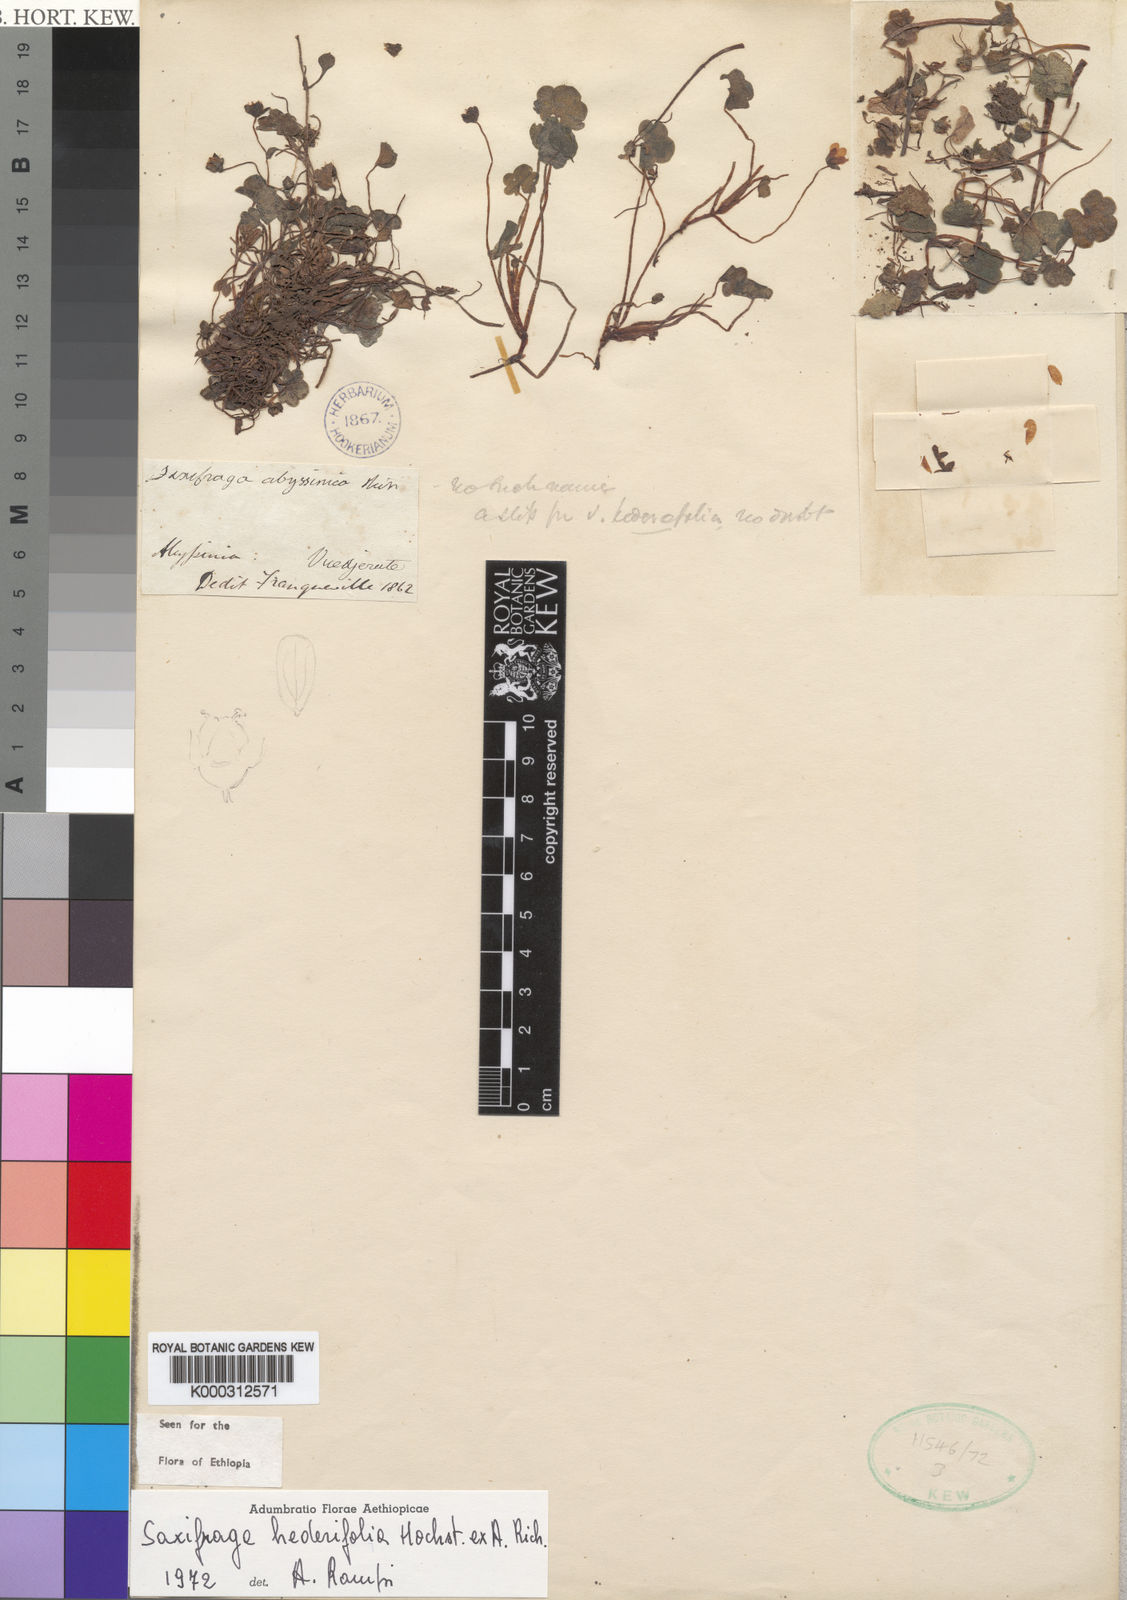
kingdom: Plantae
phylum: Tracheophyta
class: Magnoliopsida
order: Saxifragales
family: Saxifragaceae
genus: Saxifraga
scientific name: Saxifraga
